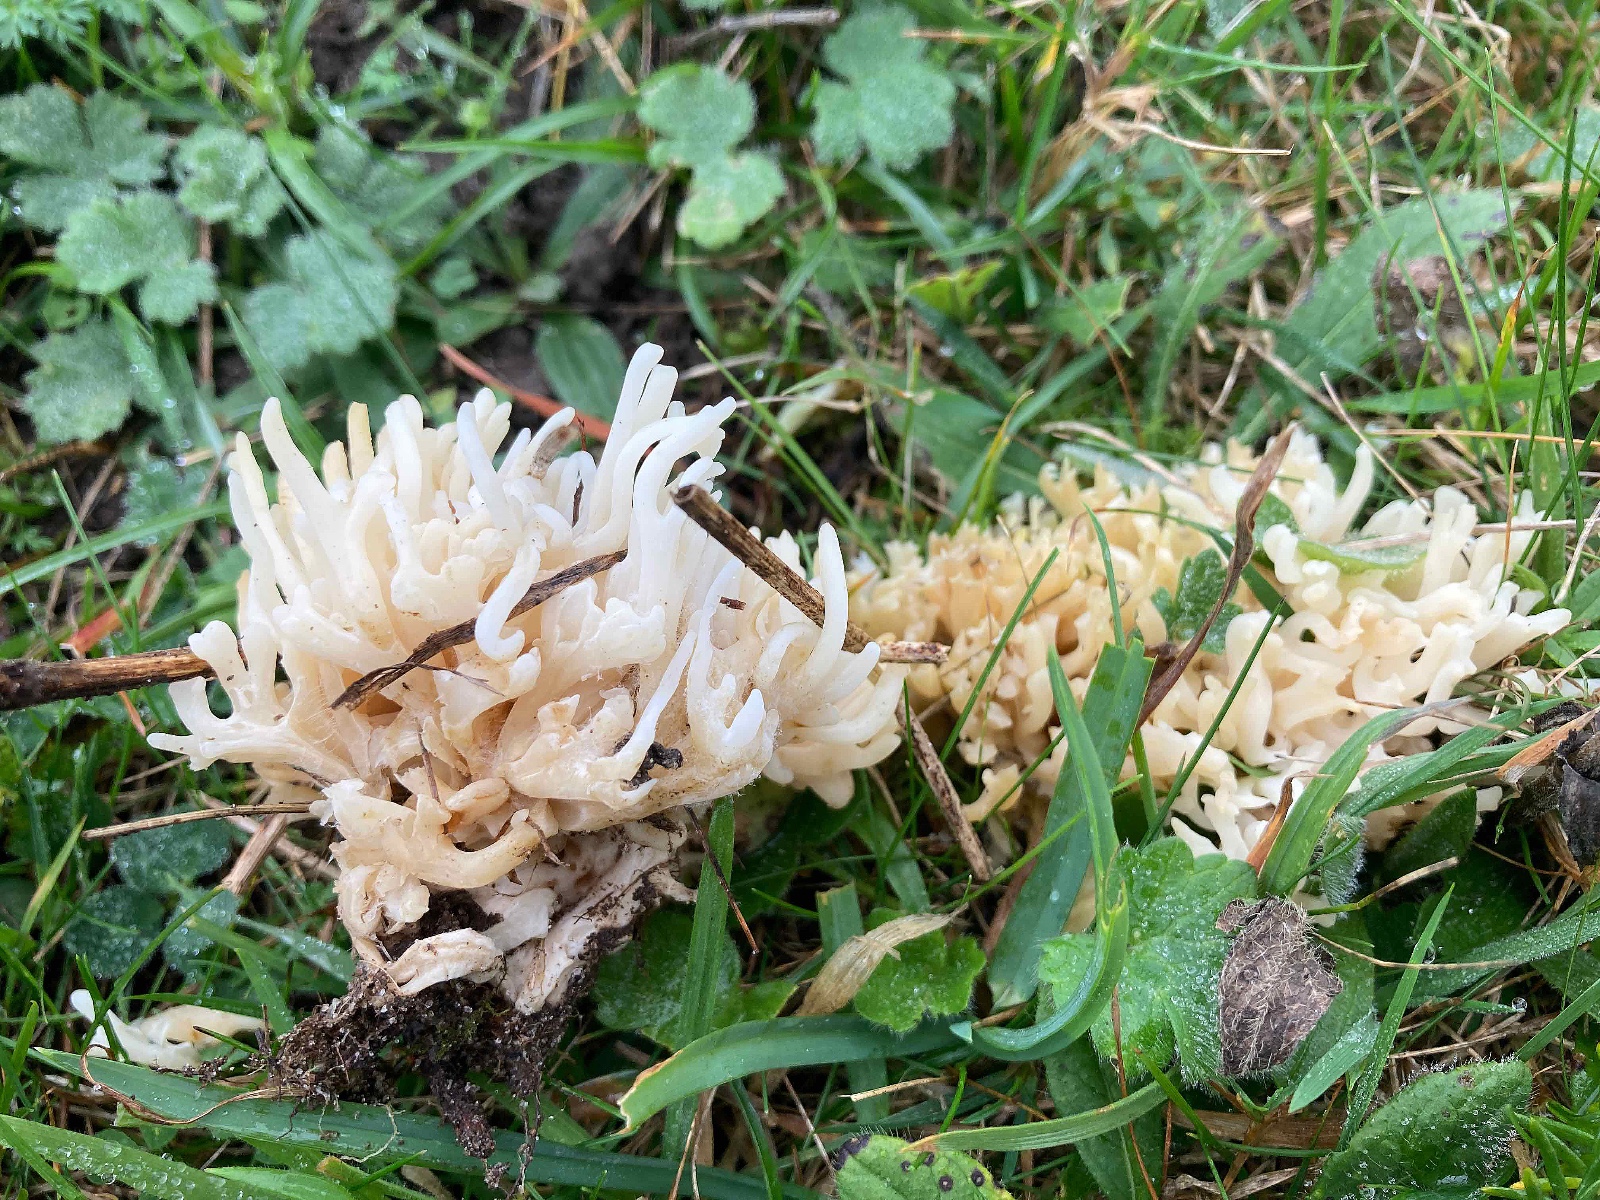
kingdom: Fungi
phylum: Basidiomycota
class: Agaricomycetes
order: Agaricales
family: Clavariaceae
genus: Ramariopsis
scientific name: Ramariopsis robusta
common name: tykgrenet køllesvamp
